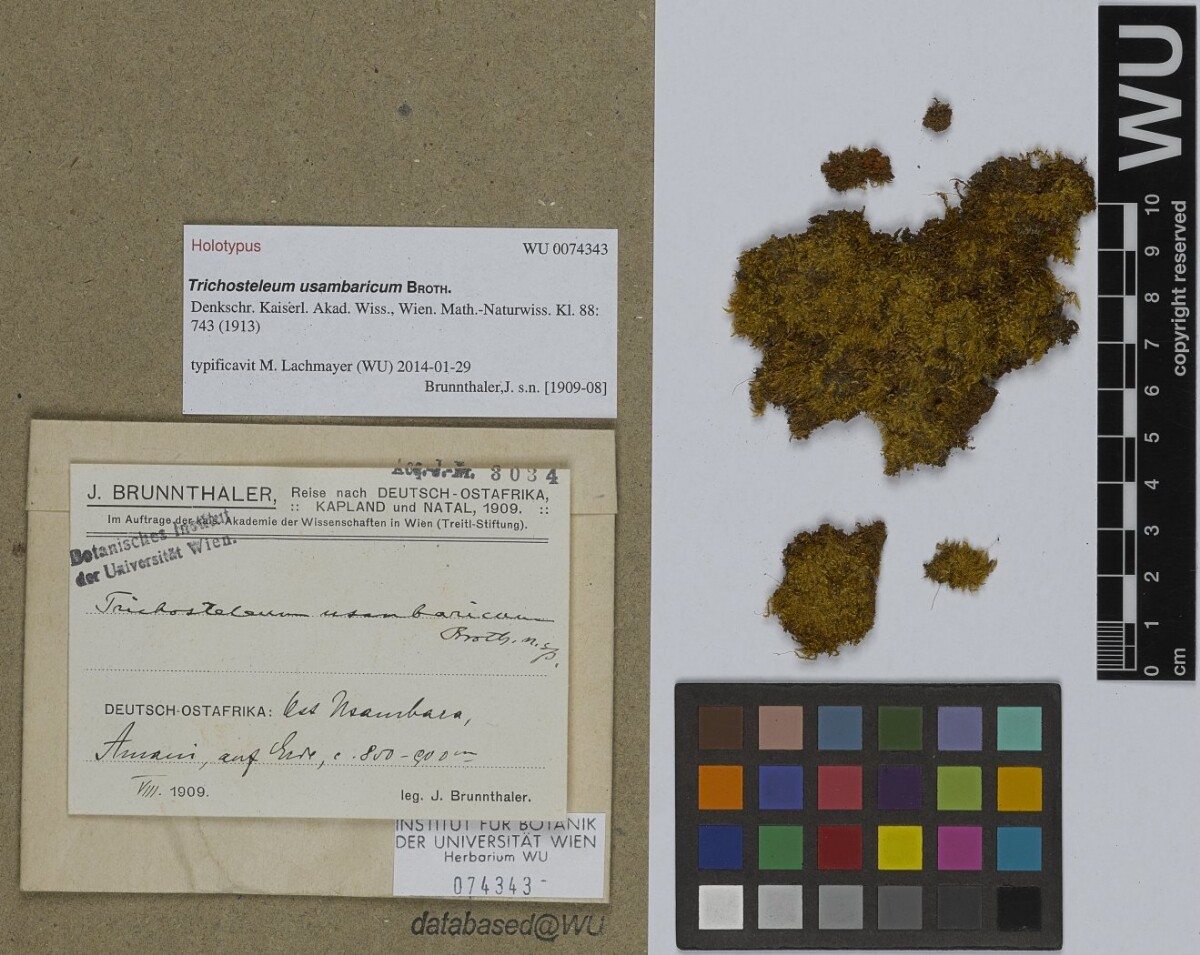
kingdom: Plantae
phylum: Bryophyta
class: Bryopsida
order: Hypnales
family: Sematophyllaceae
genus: Trichosteleum
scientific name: Trichosteleum usambaricum
